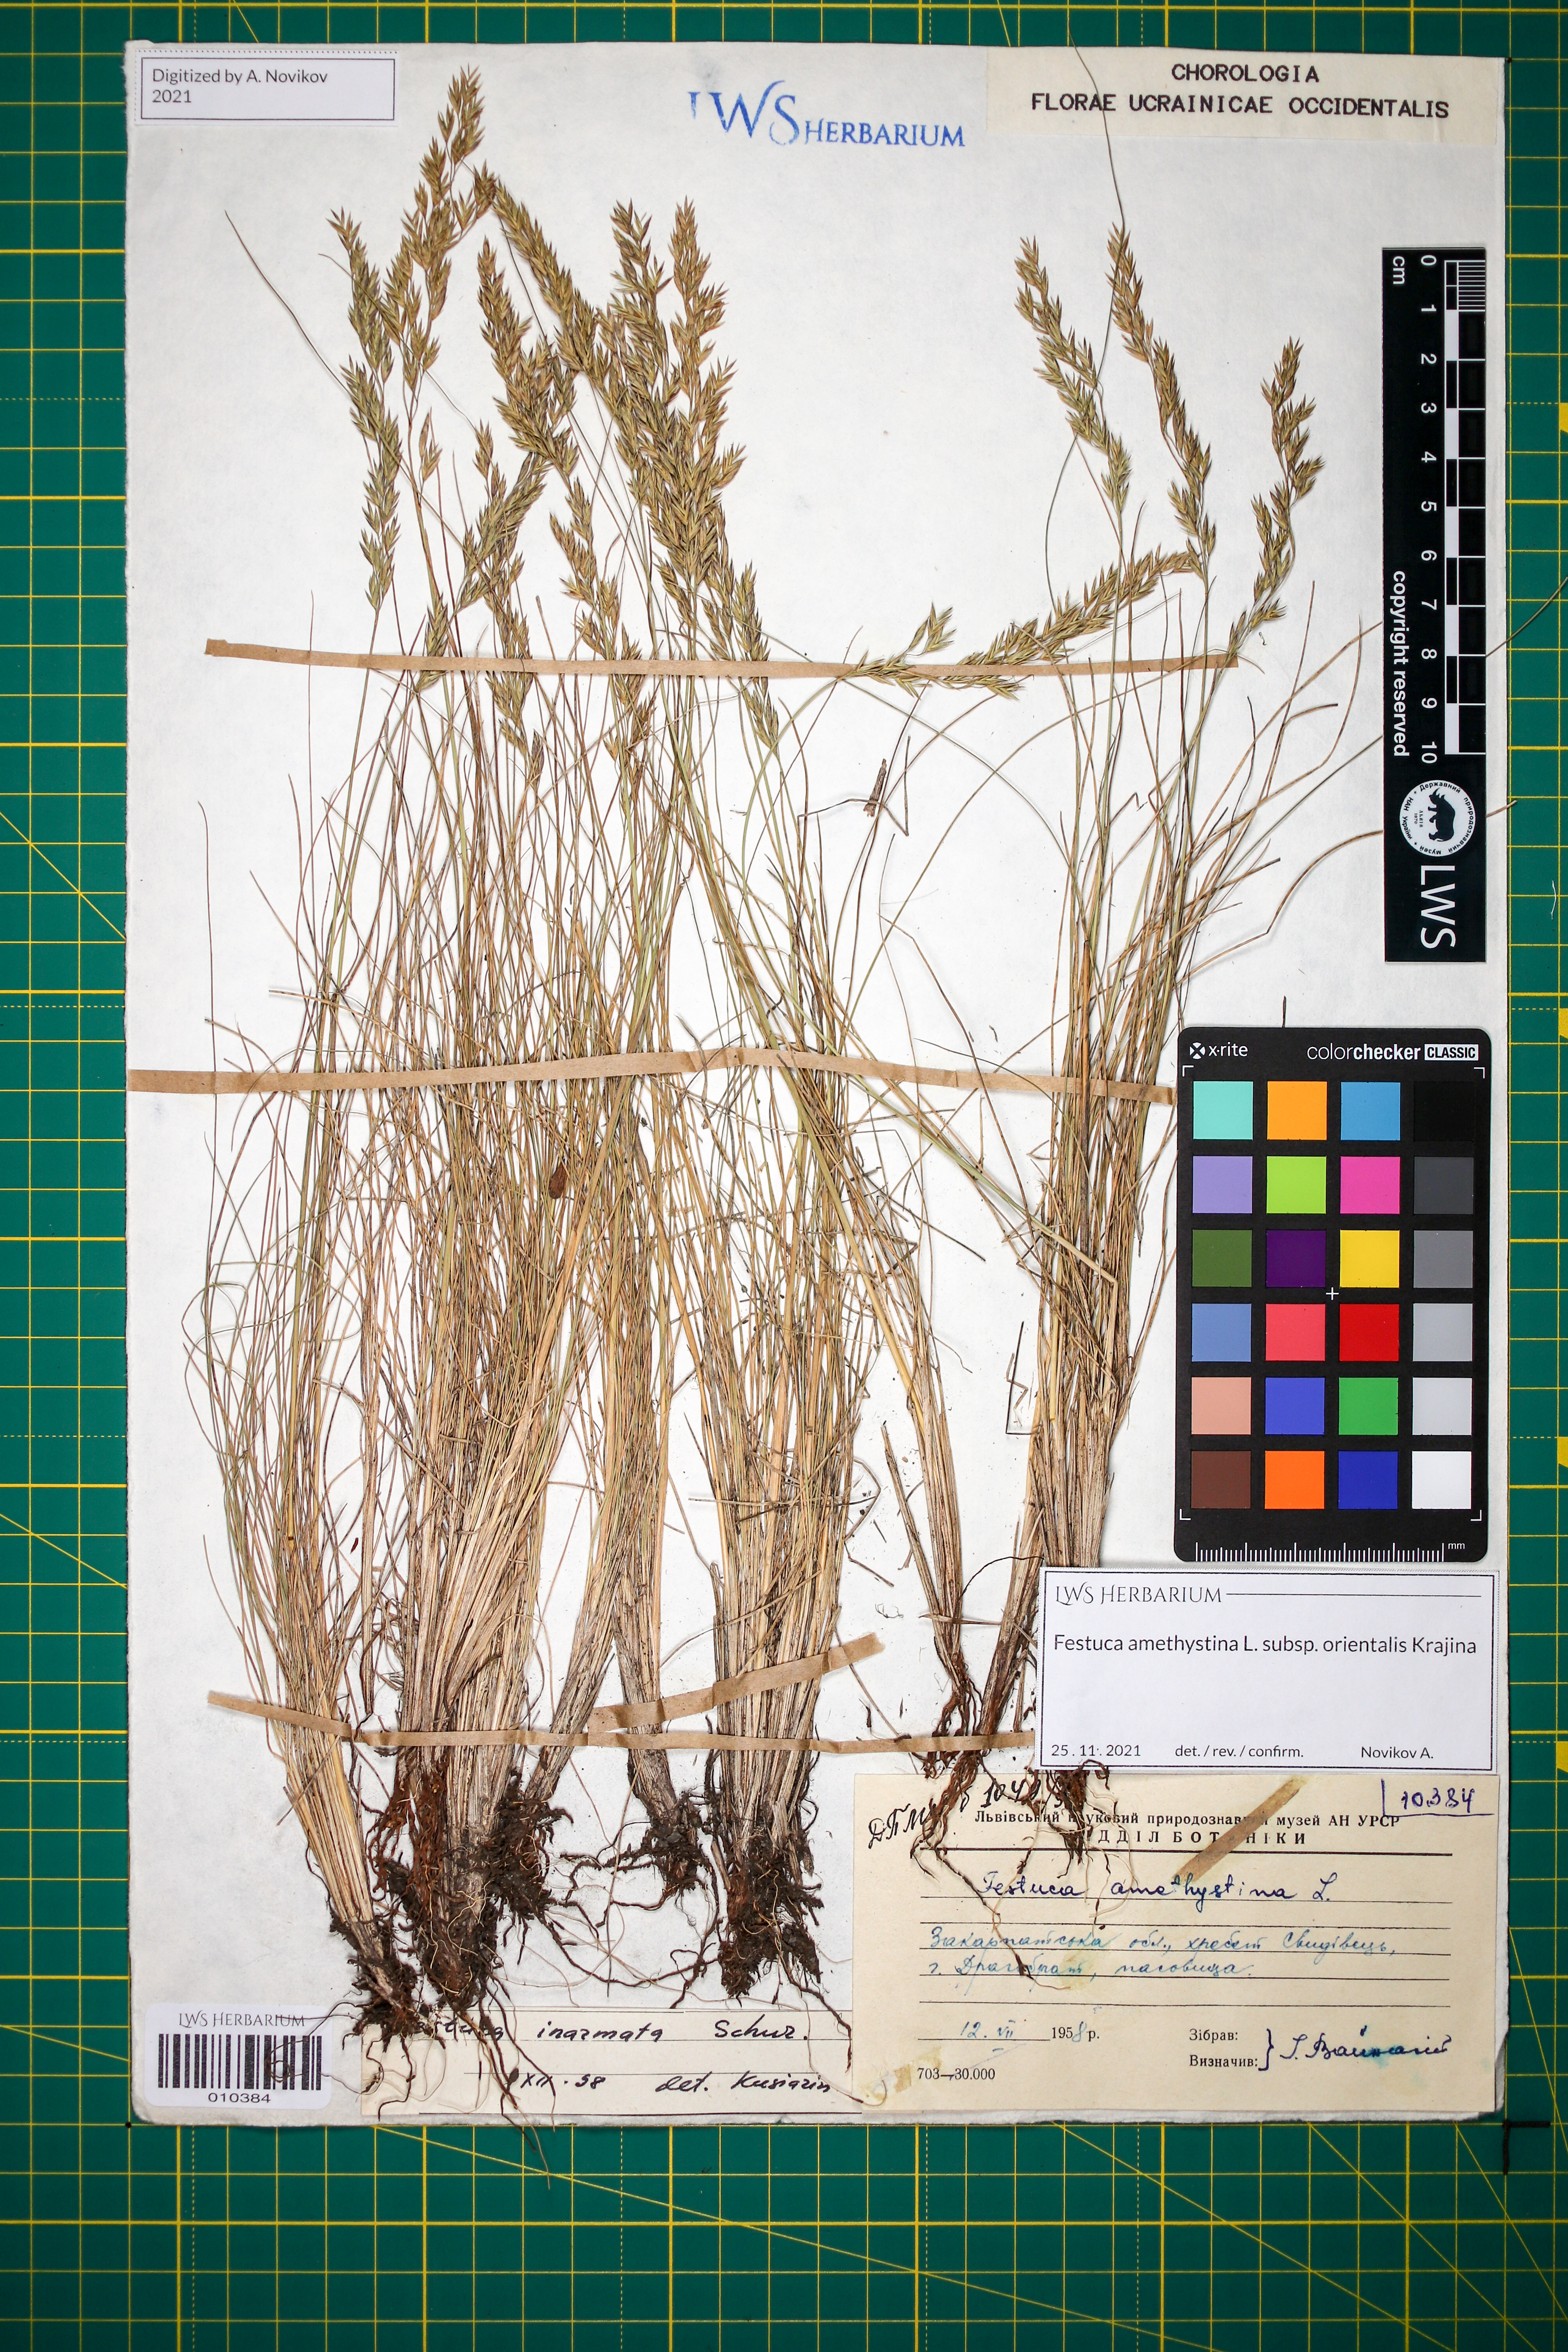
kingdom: Plantae
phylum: Tracheophyta
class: Liliopsida
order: Poales
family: Poaceae
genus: Festuca
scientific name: Festuca amethystina
